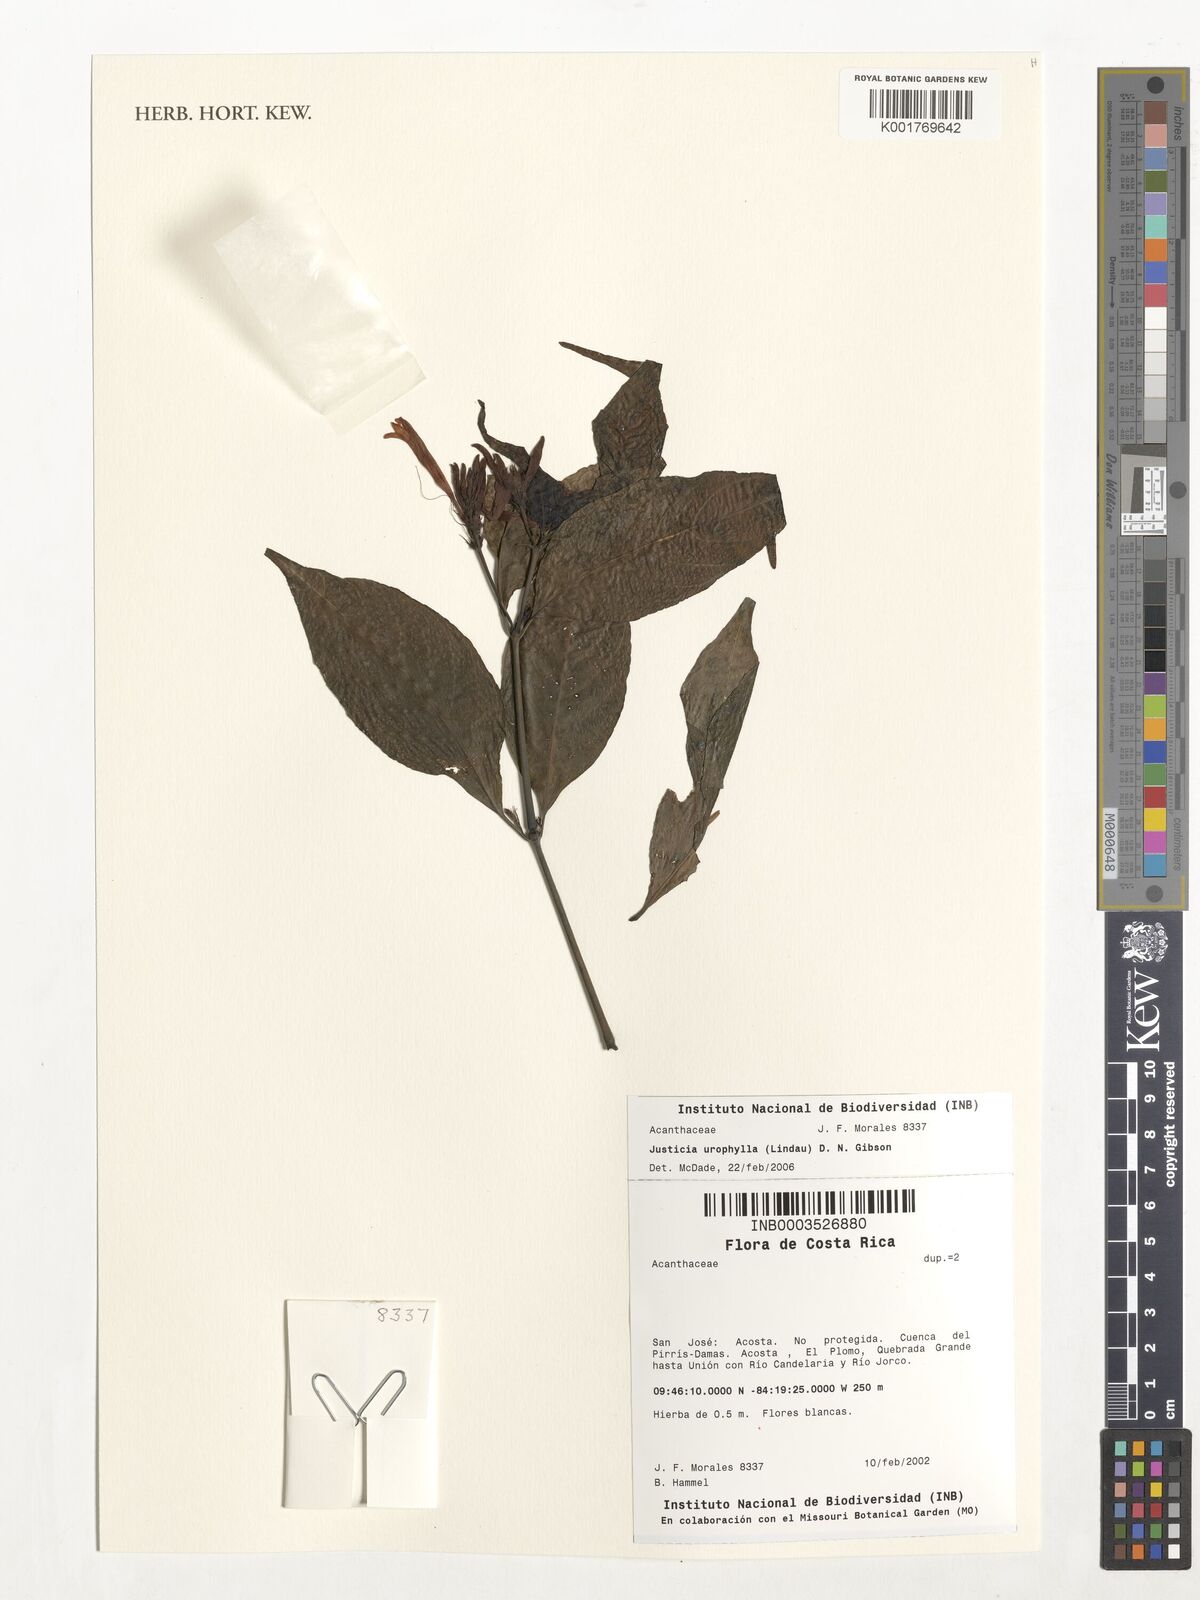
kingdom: Plantae
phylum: Tracheophyta
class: Magnoliopsida
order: Lamiales
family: Acanthaceae
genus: Justicia
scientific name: Justicia urophylla
